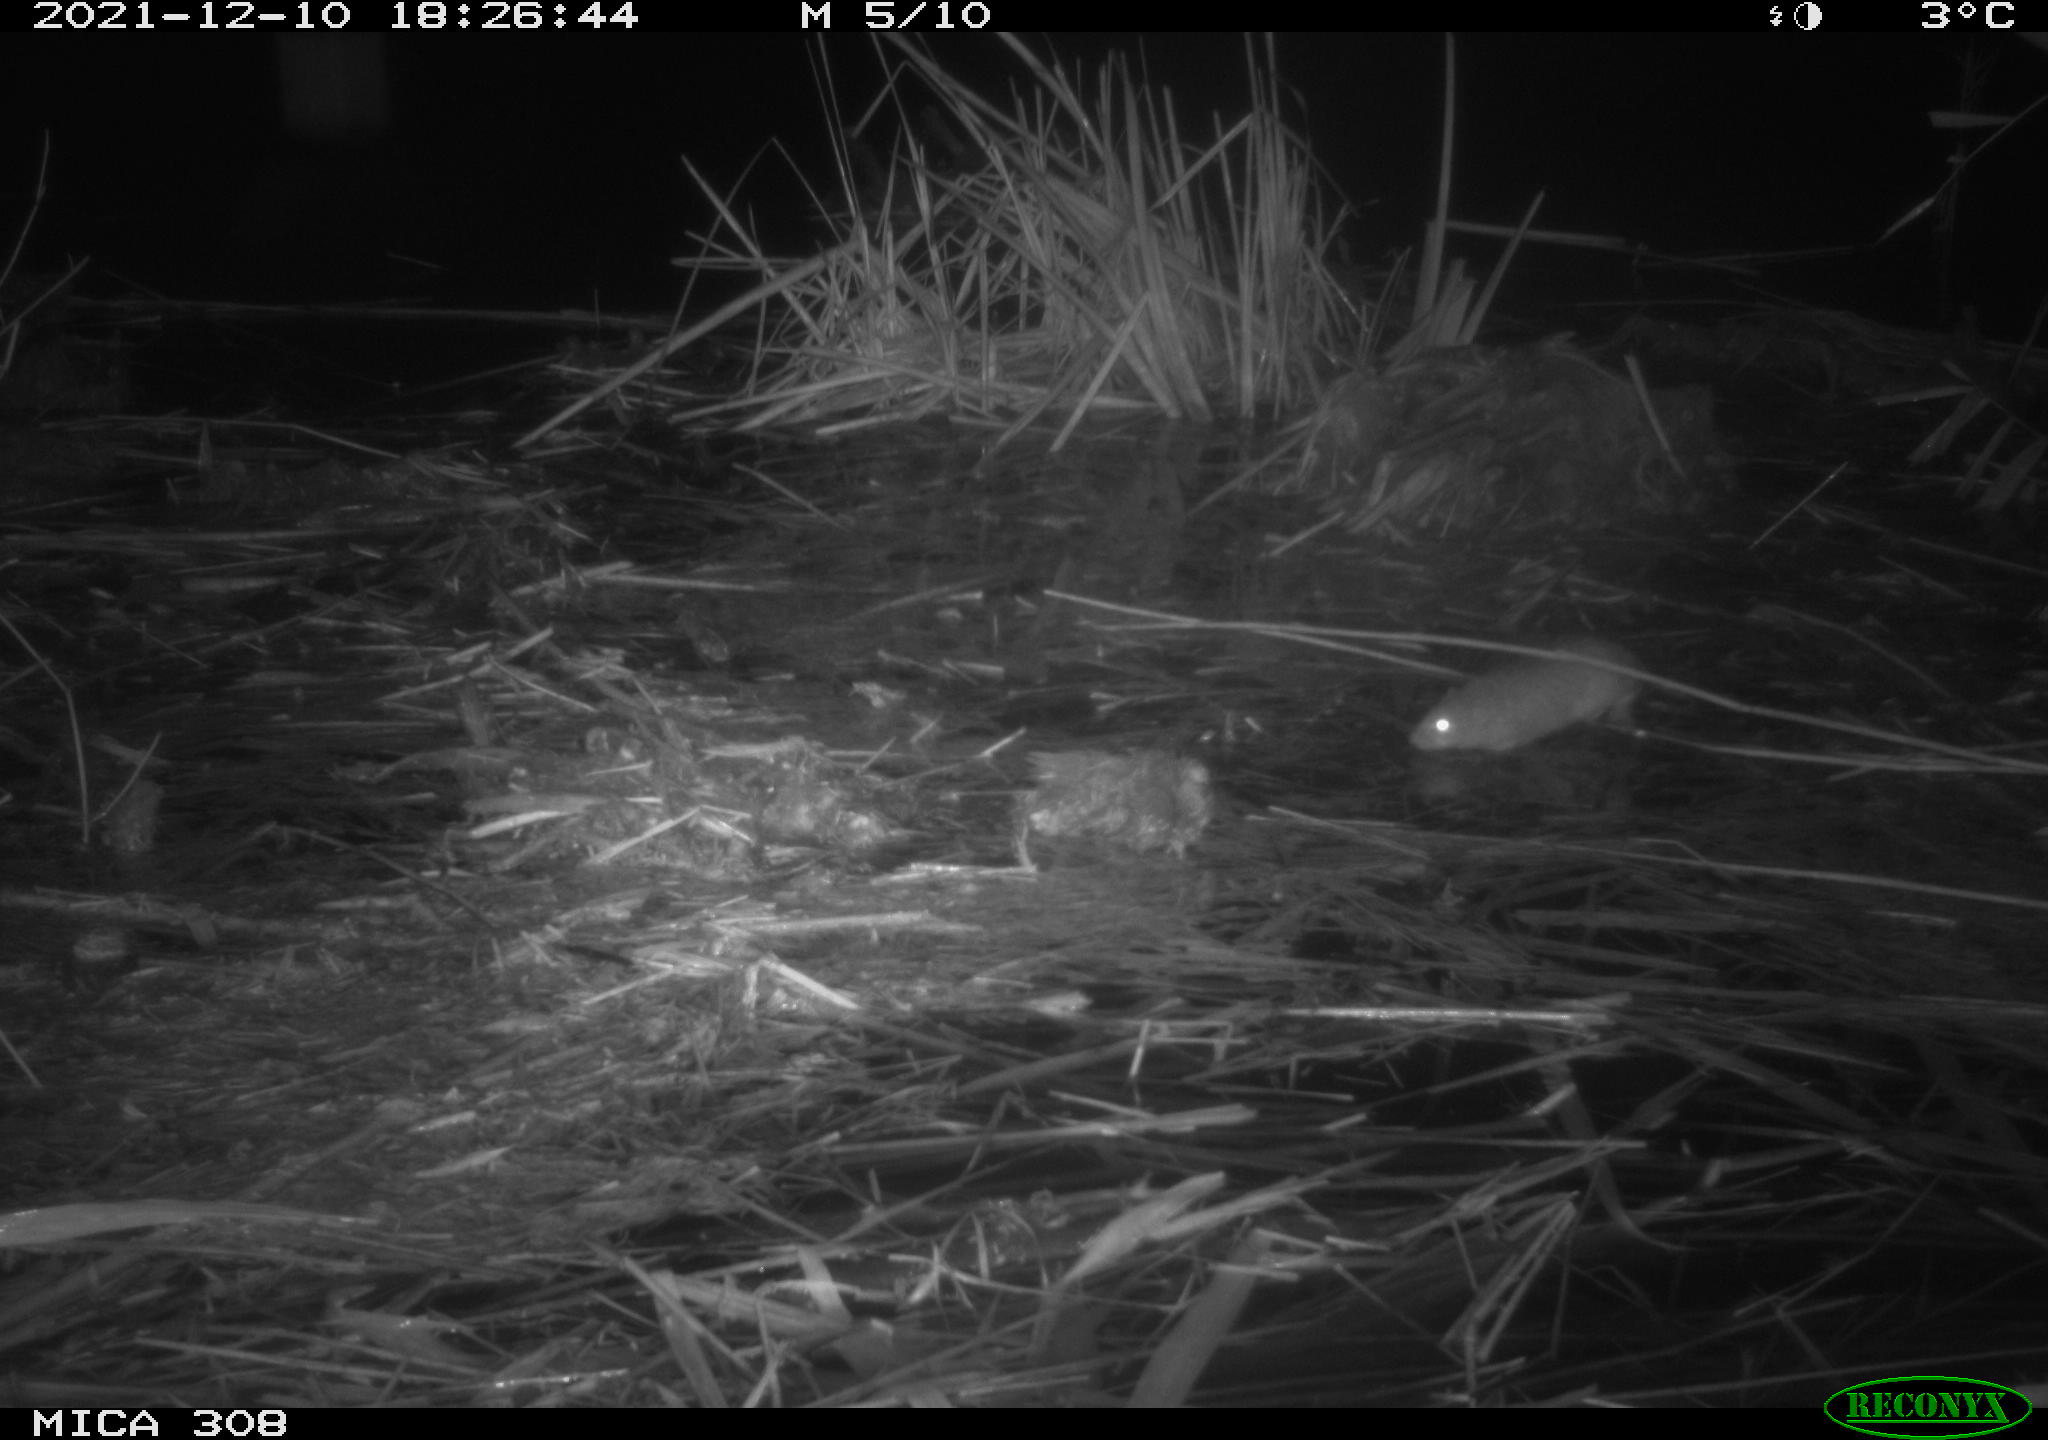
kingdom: Animalia
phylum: Chordata
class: Mammalia
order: Rodentia
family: Muridae
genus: Rattus
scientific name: Rattus norvegicus
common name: Brown rat
